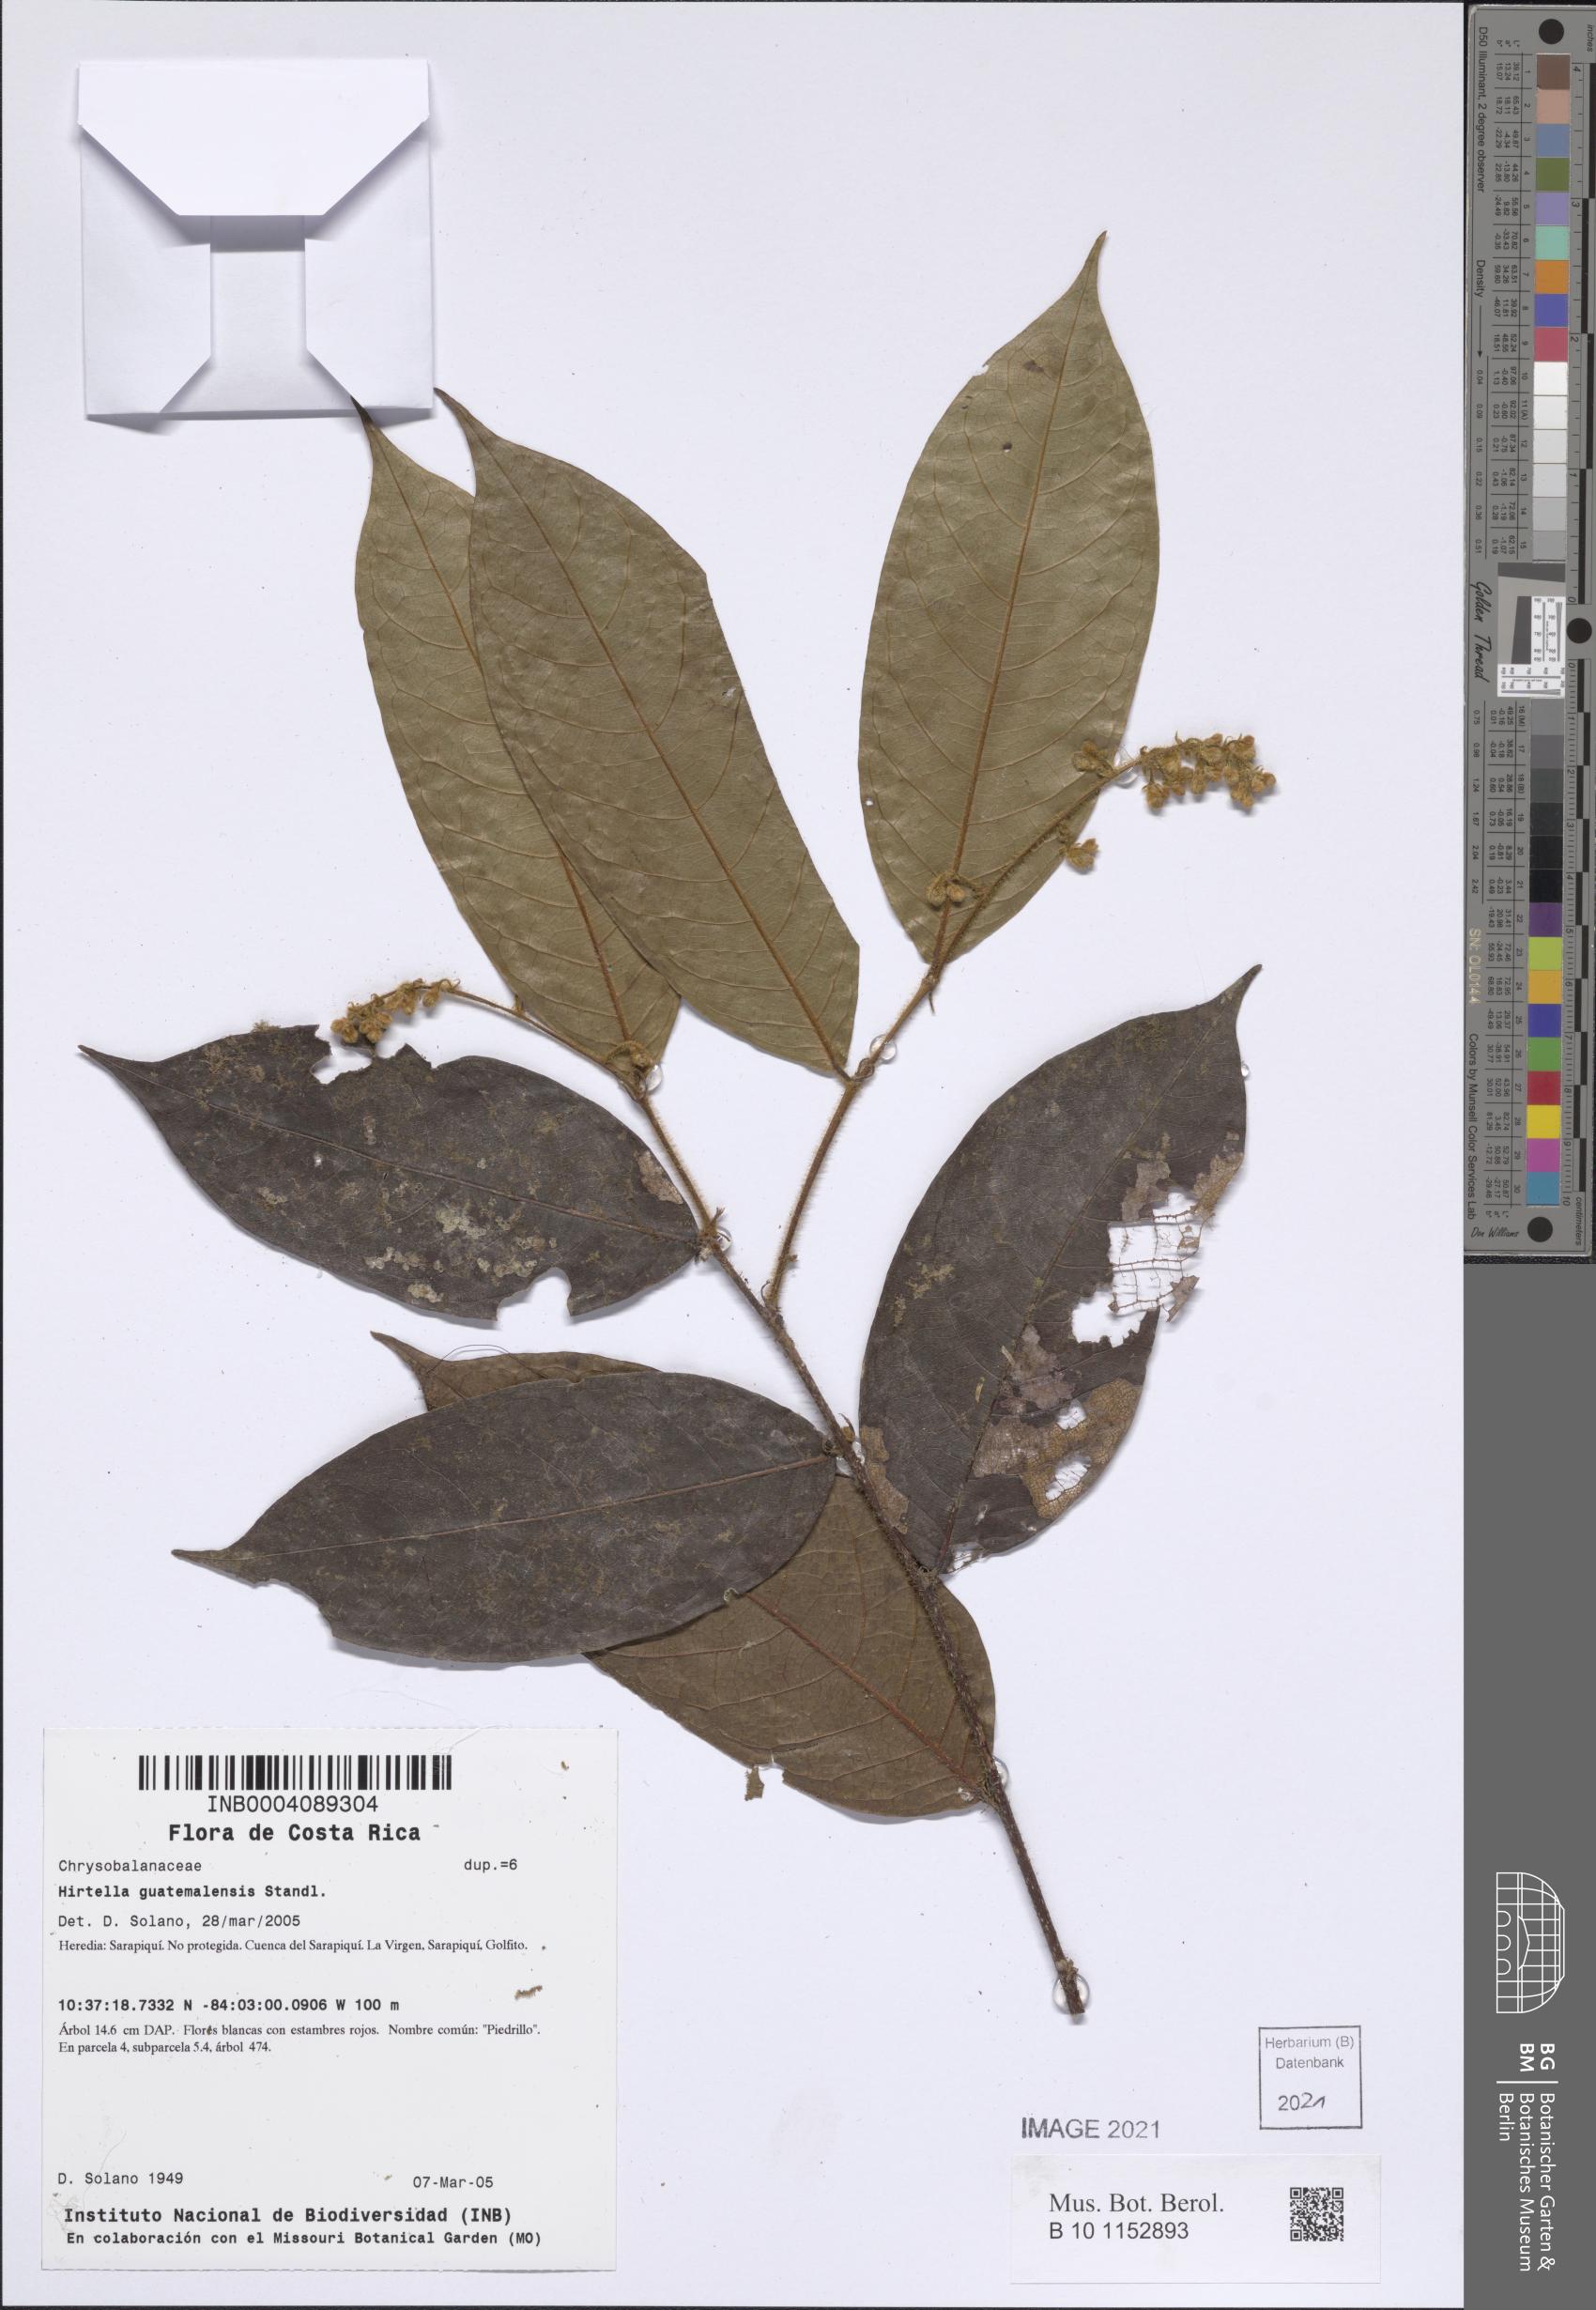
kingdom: Plantae
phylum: Tracheophyta
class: Magnoliopsida
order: Malpighiales
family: Chrysobalanaceae
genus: Hirtella
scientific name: Hirtella guatemalensis
